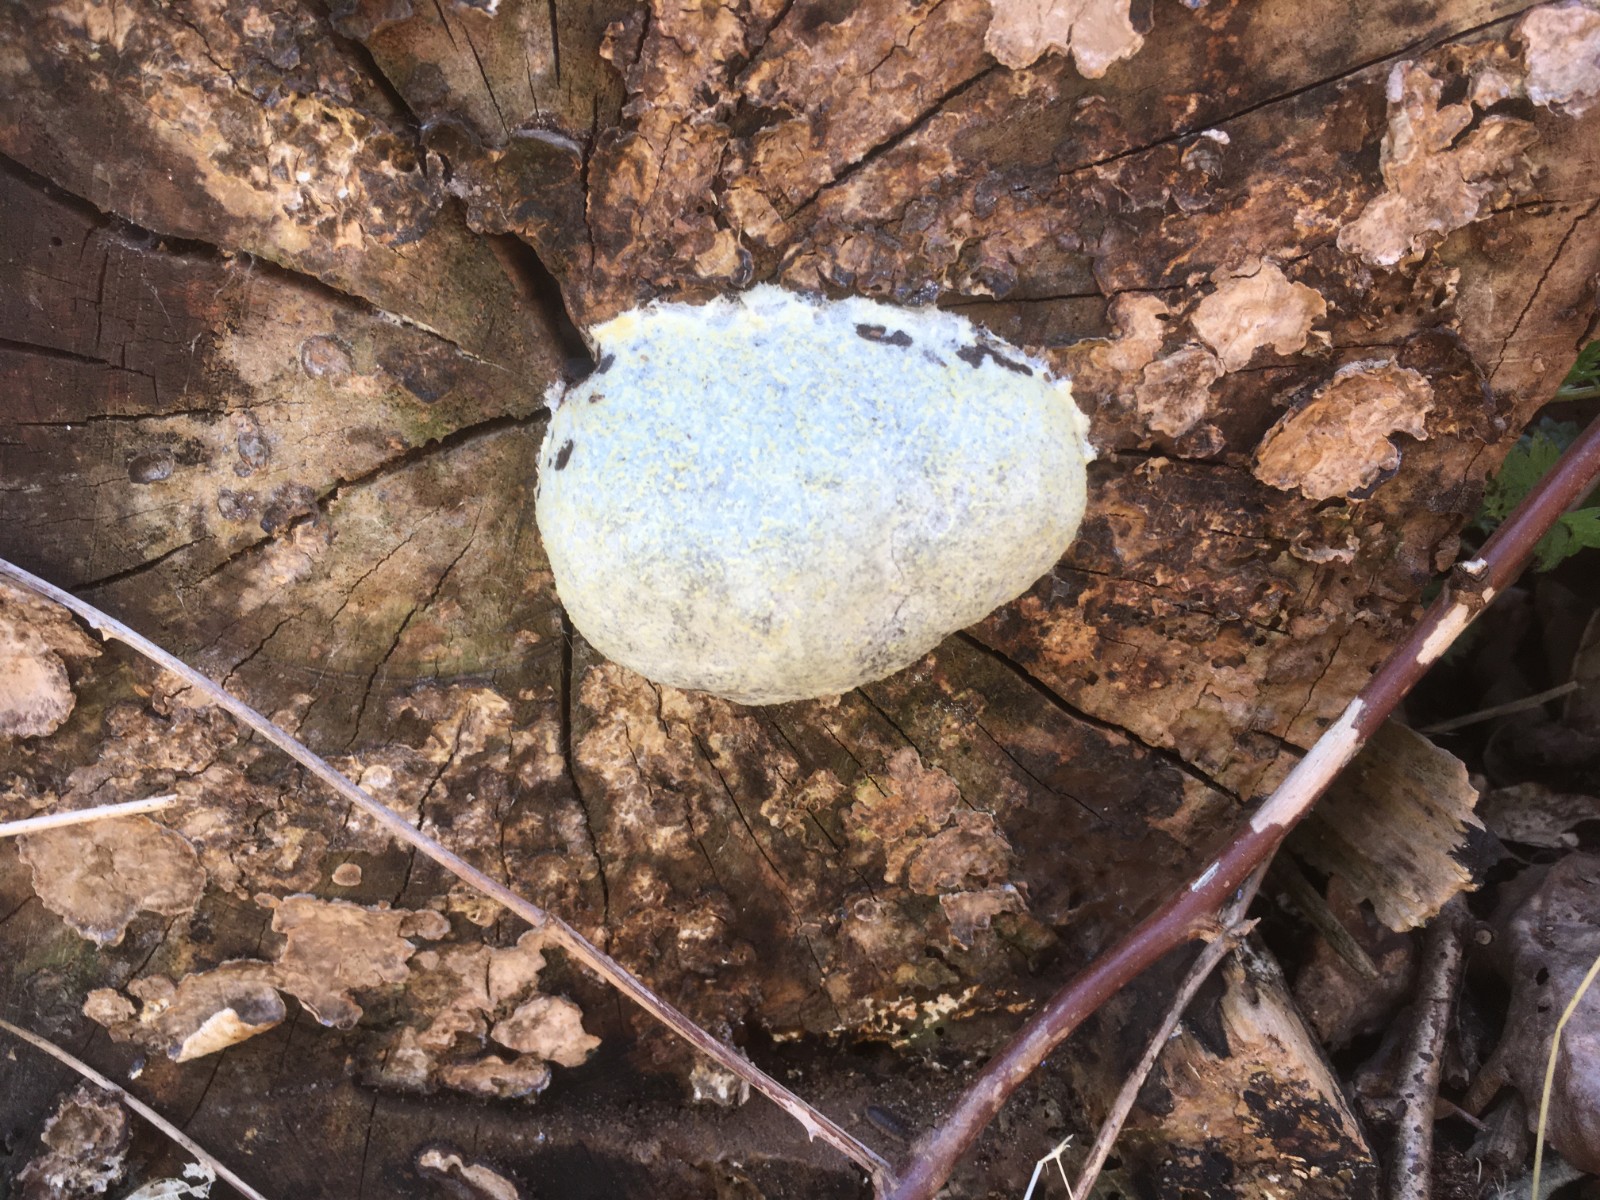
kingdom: Protozoa
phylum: Mycetozoa
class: Myxomycetes
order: Cribrariales
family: Tubiferaceae
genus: Reticularia
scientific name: Reticularia lycoperdon
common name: skinnende støvpude
